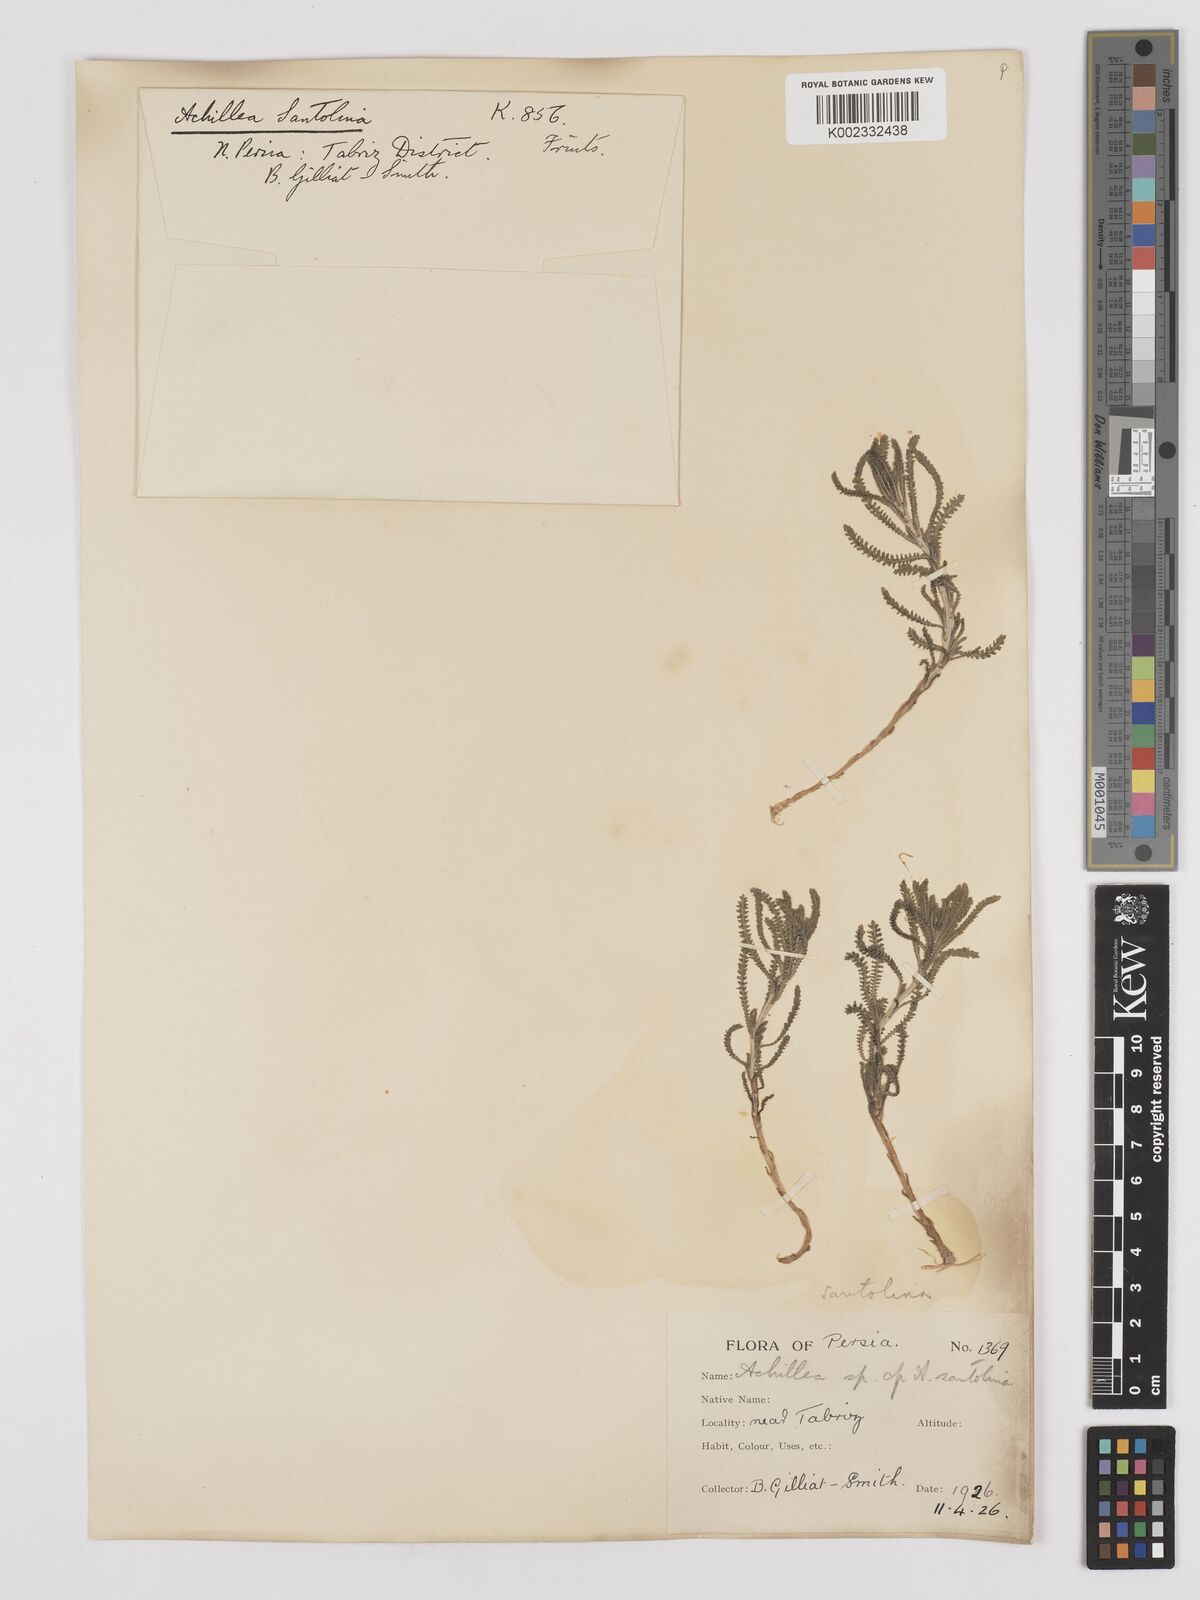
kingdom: Plantae
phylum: Tracheophyta
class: Magnoliopsida
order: Asterales
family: Asteraceae
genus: Achillea
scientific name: Achillea tenuifolia
